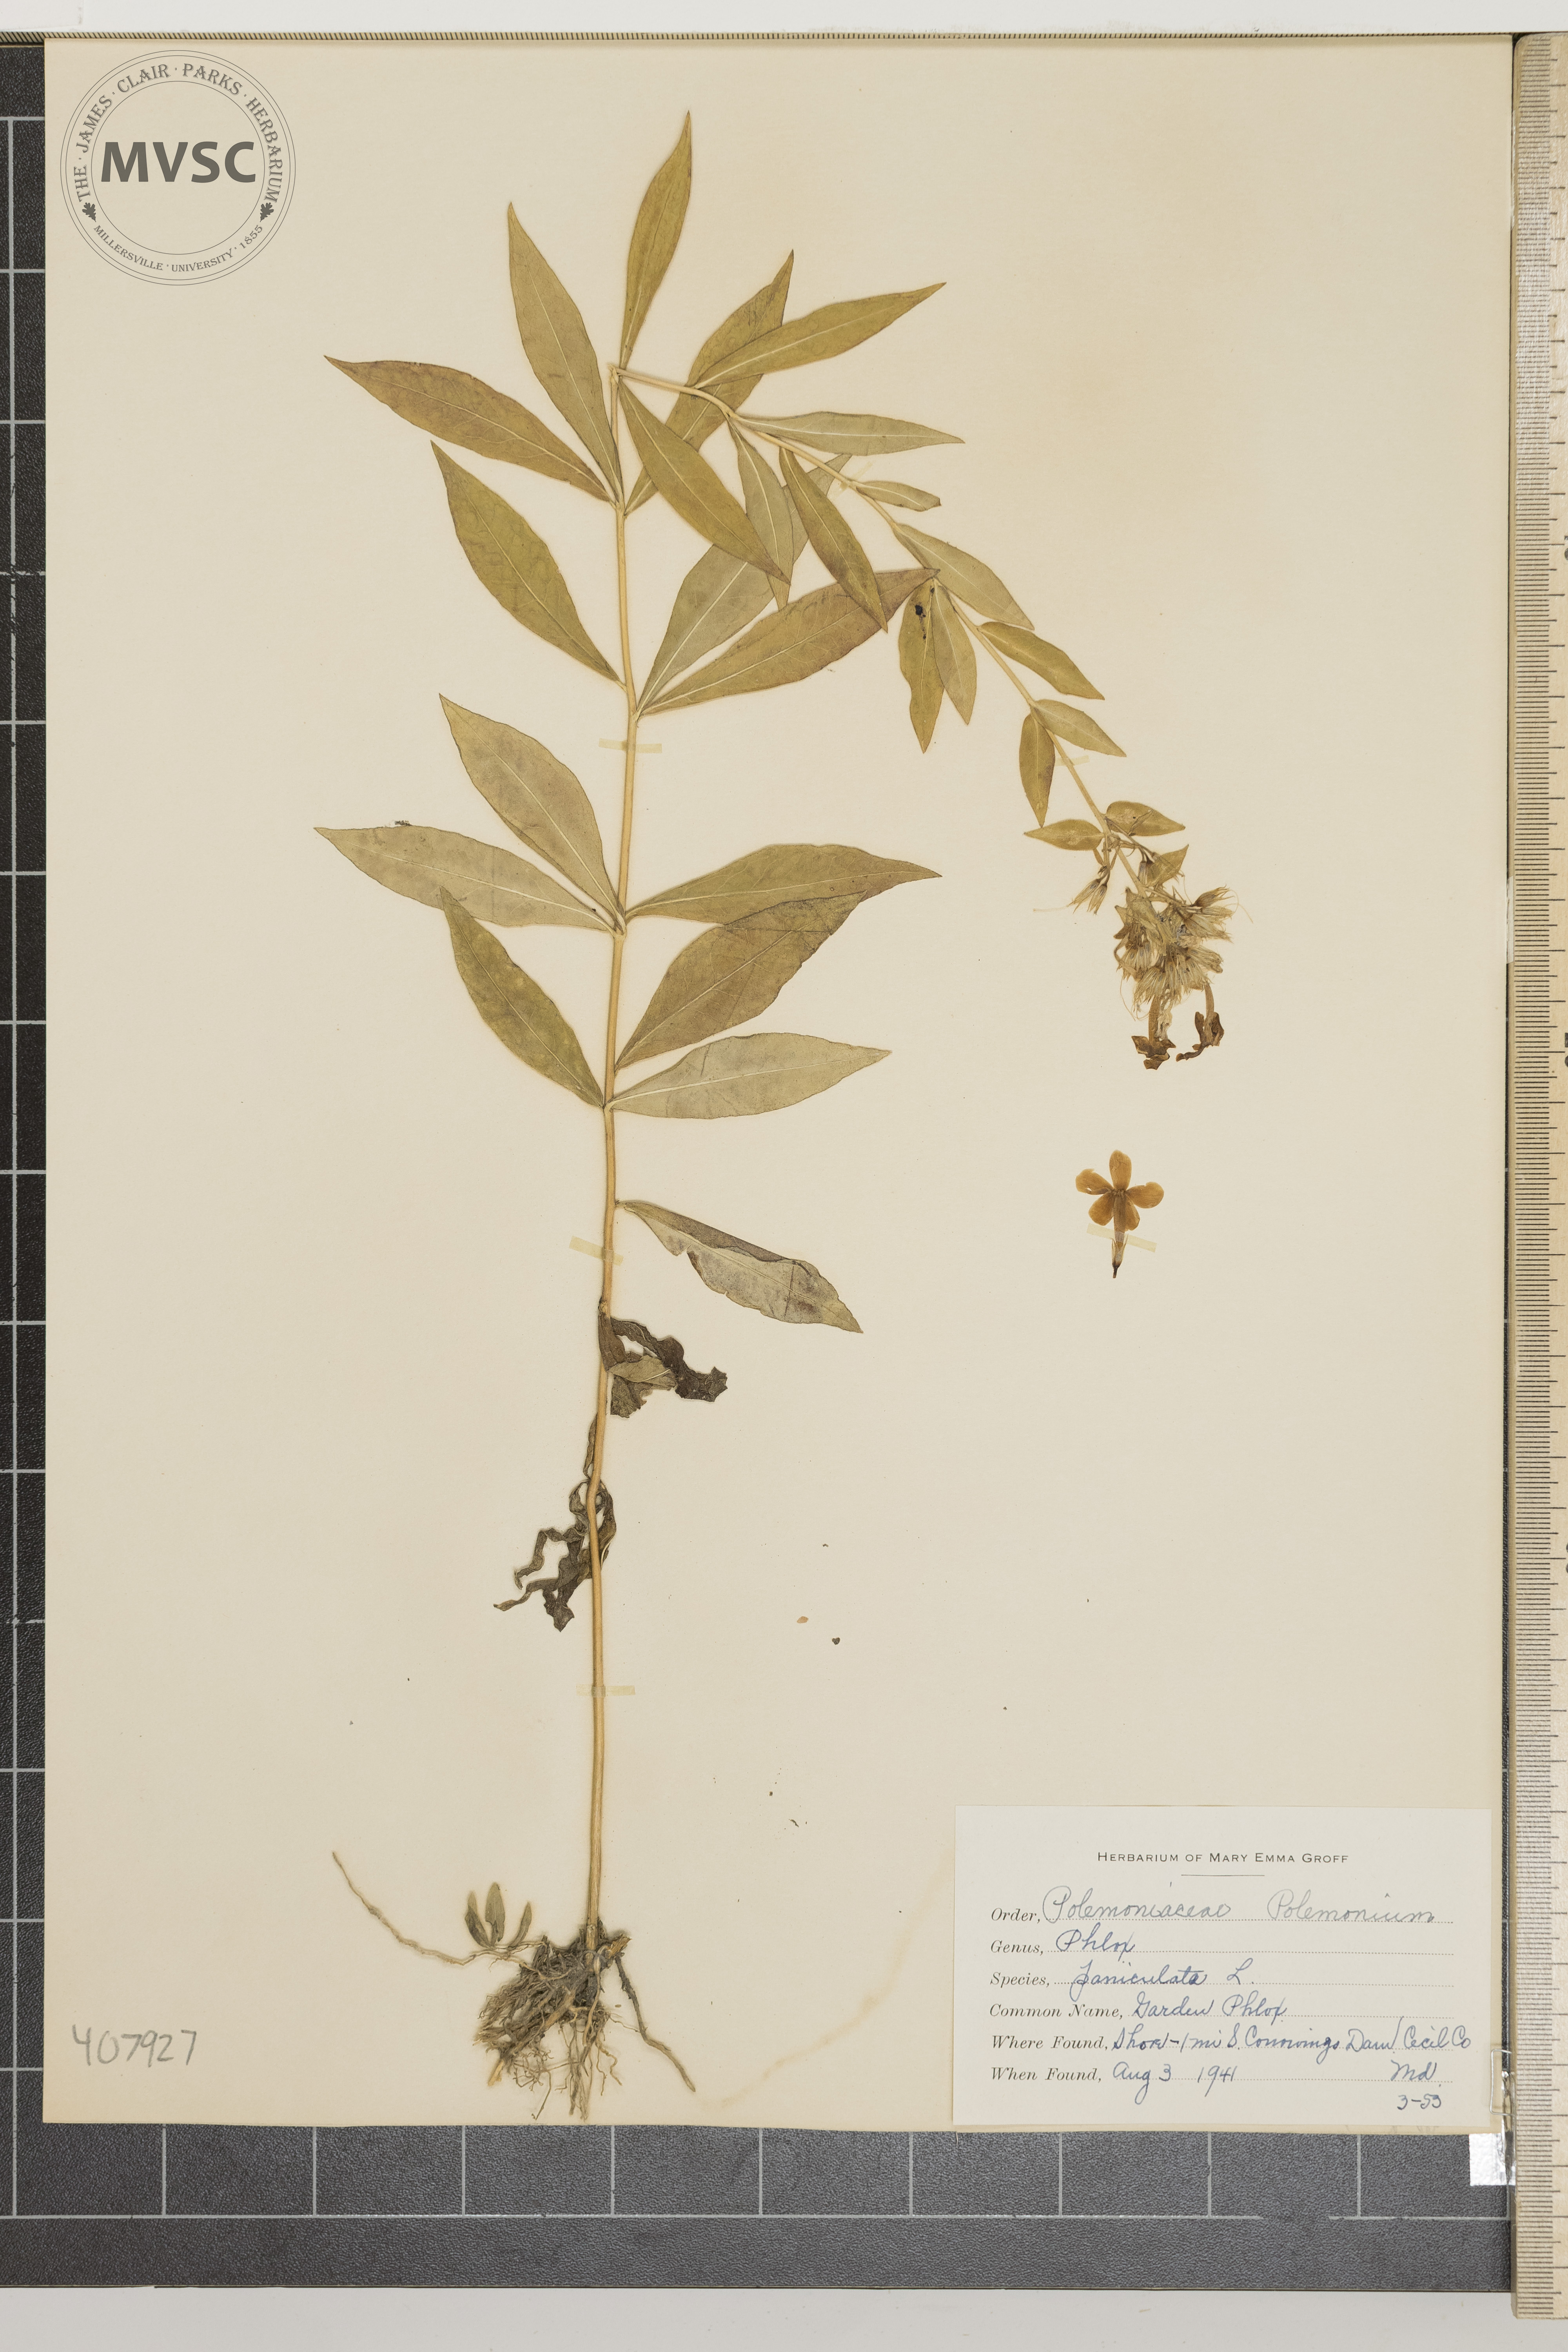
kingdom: Plantae
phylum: Tracheophyta
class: Magnoliopsida
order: Ericales
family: Polemoniaceae
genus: Phlox
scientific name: Phlox paniculata
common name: Garden Phlox
